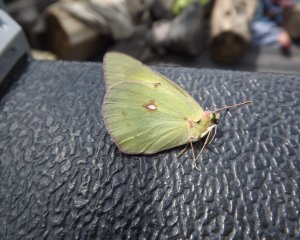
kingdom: Animalia
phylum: Arthropoda
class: Insecta
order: Lepidoptera
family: Pieridae
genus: Colias
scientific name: Colias nastes
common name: Labrador Sulphur
